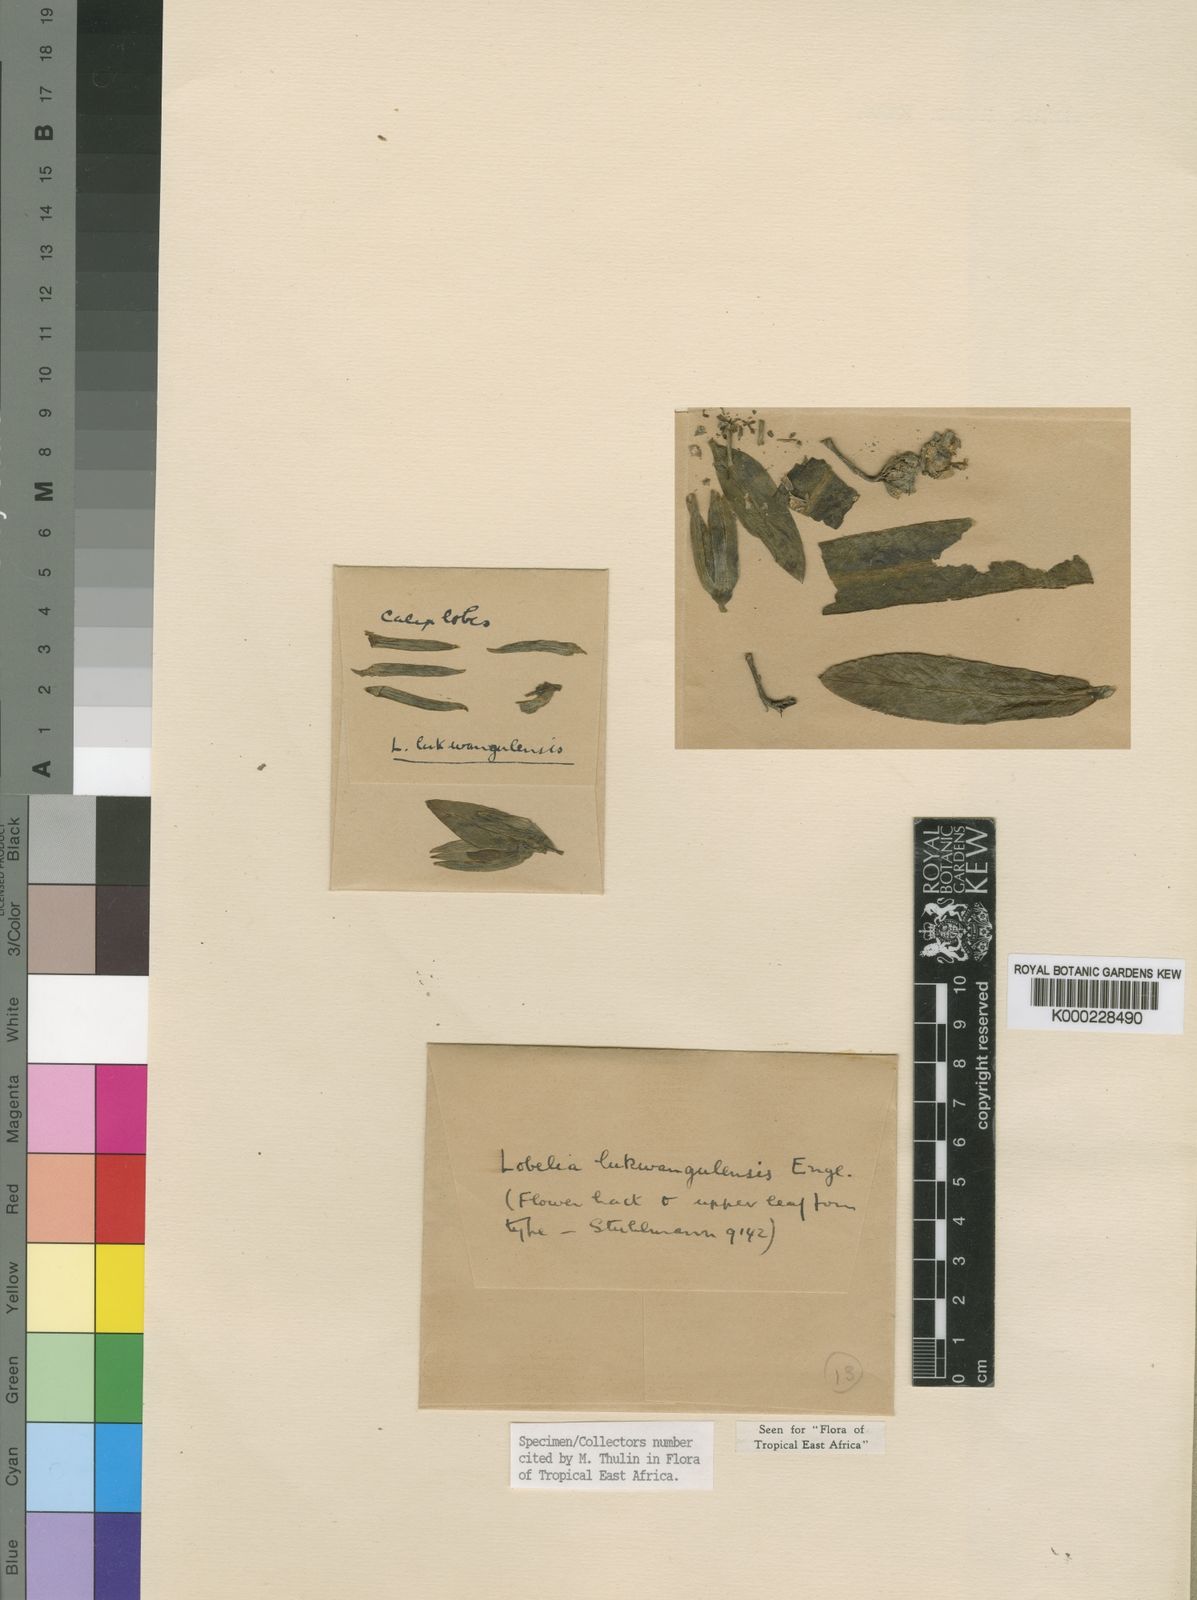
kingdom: Plantae
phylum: Tracheophyta
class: Magnoliopsida
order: Asterales
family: Campanulaceae
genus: Lobelia
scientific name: Lobelia lukwangulensis
